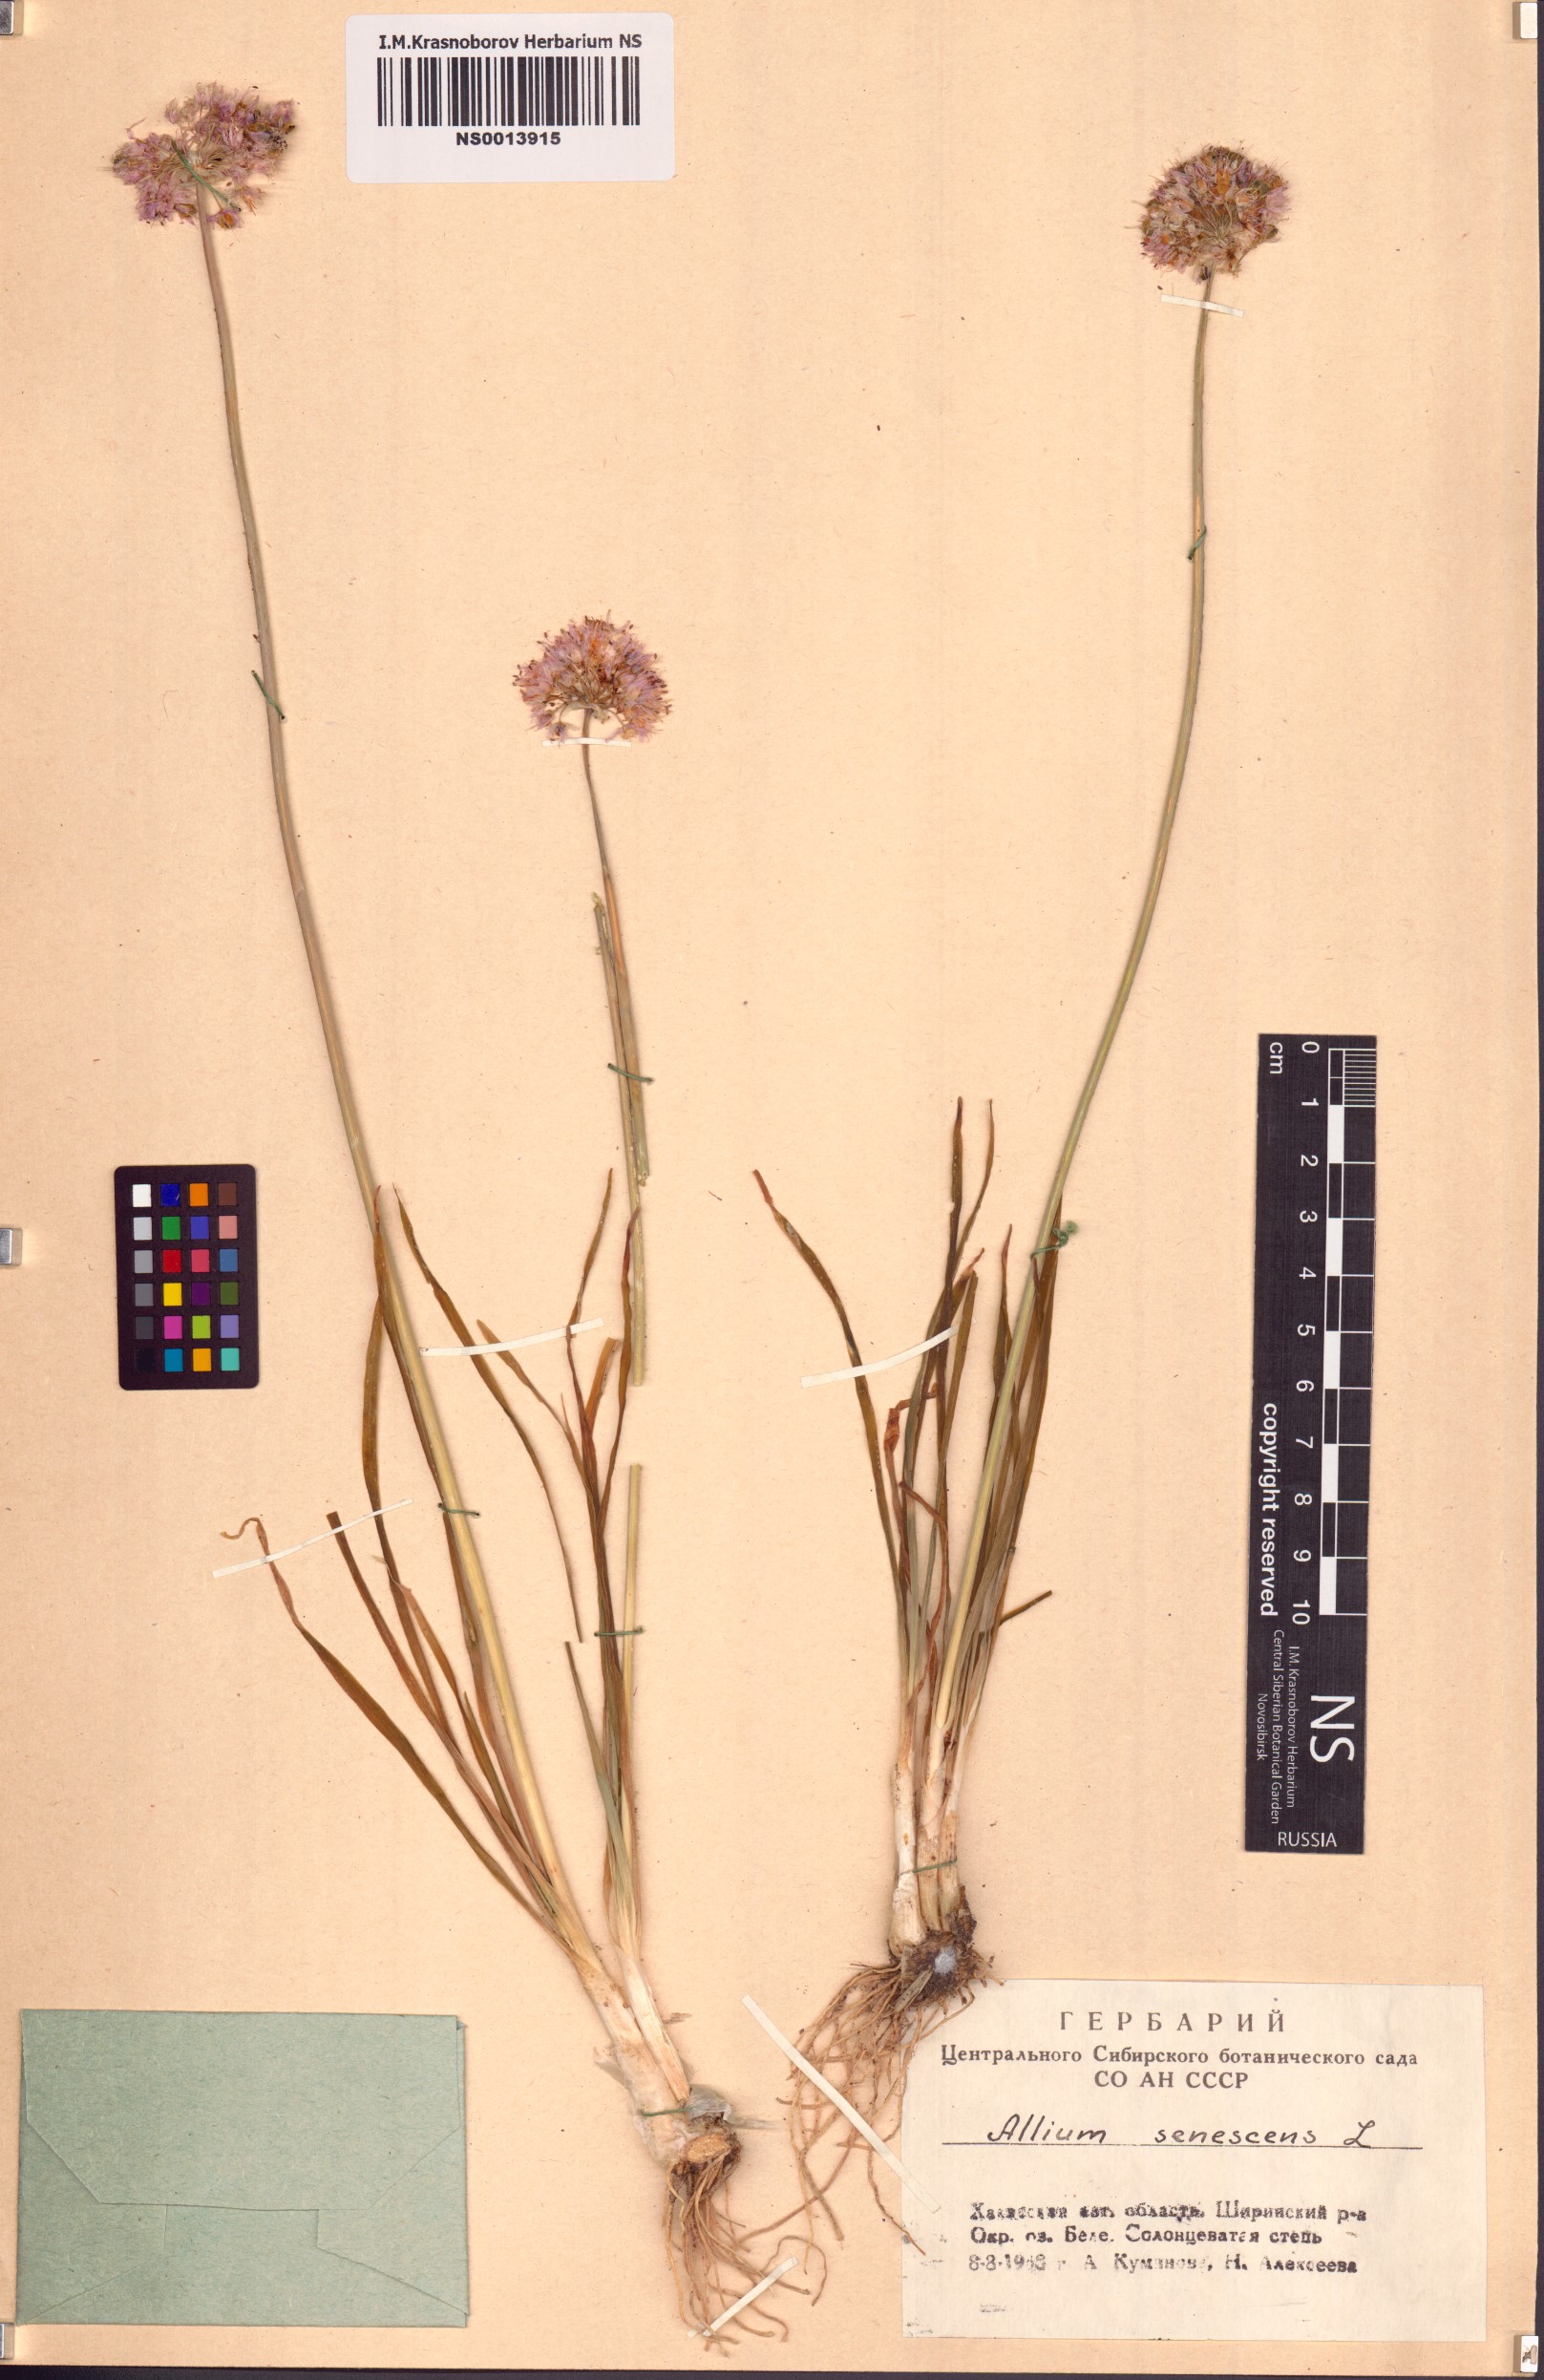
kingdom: Plantae
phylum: Tracheophyta
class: Liliopsida
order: Asparagales
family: Amaryllidaceae
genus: Allium
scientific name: Allium senescens
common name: German garlic
